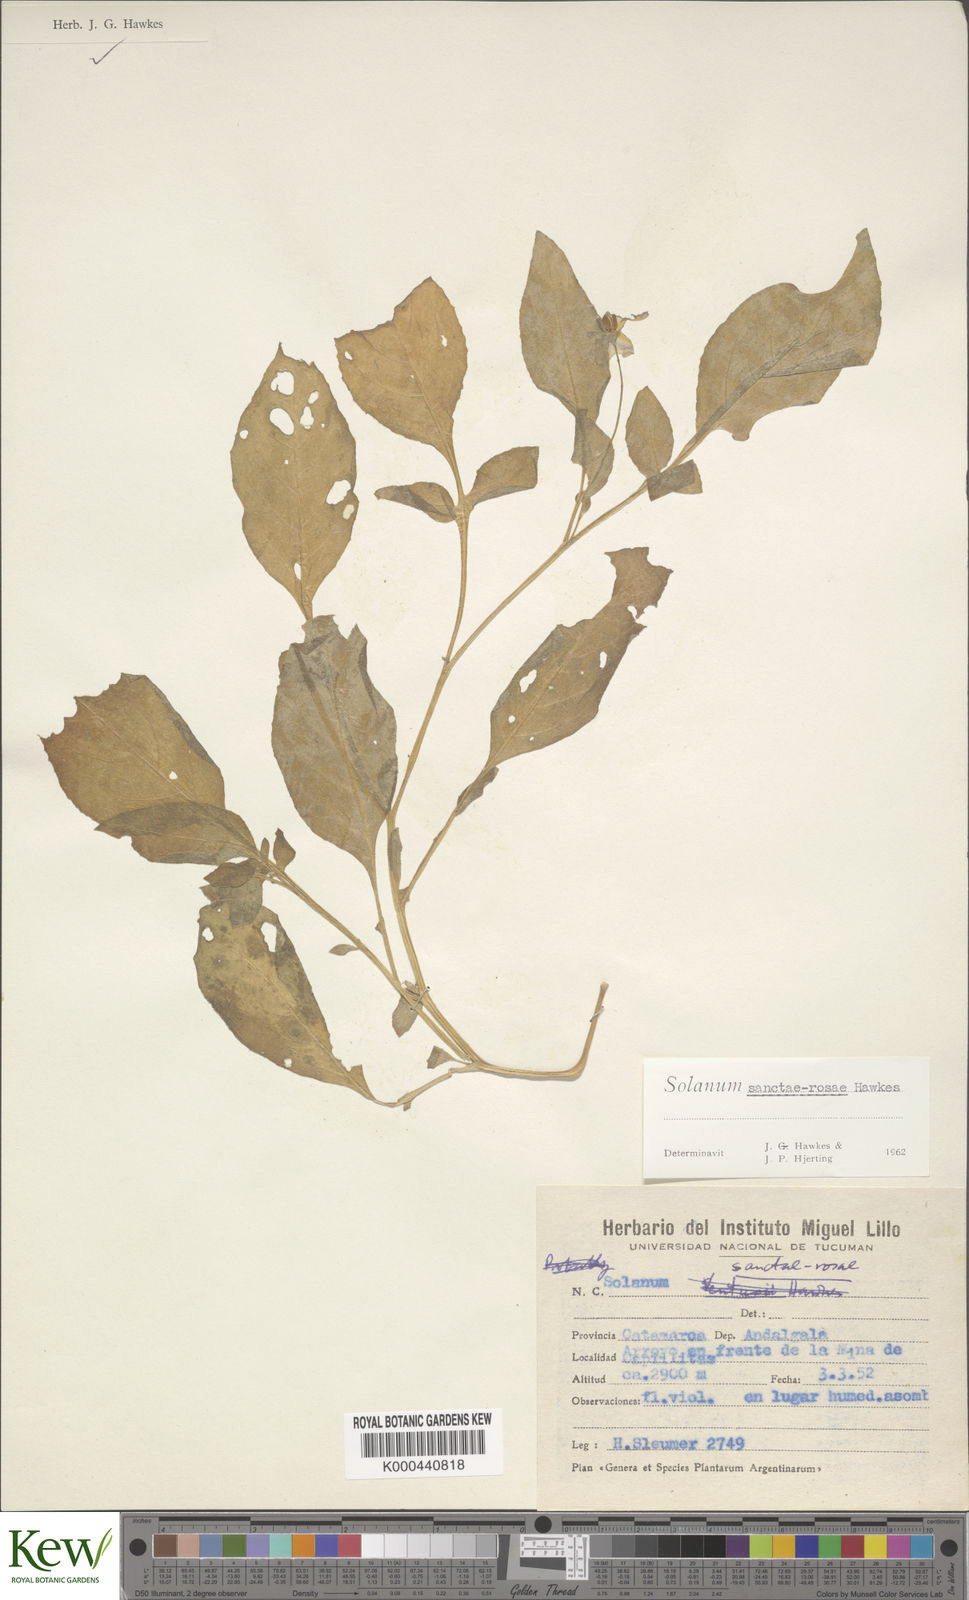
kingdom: Plantae
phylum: Tracheophyta
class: Magnoliopsida
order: Solanales
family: Solanaceae
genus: Solanum
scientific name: Solanum boliviense
